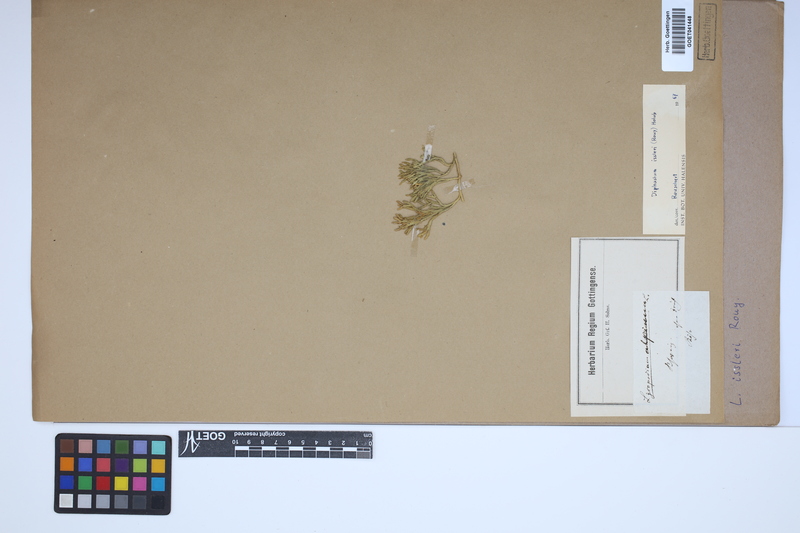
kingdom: Plantae
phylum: Tracheophyta
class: Lycopodiopsida
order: Lycopodiales
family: Lycopodiaceae
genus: Diphasiastrum
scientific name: Diphasiastrum issleri
